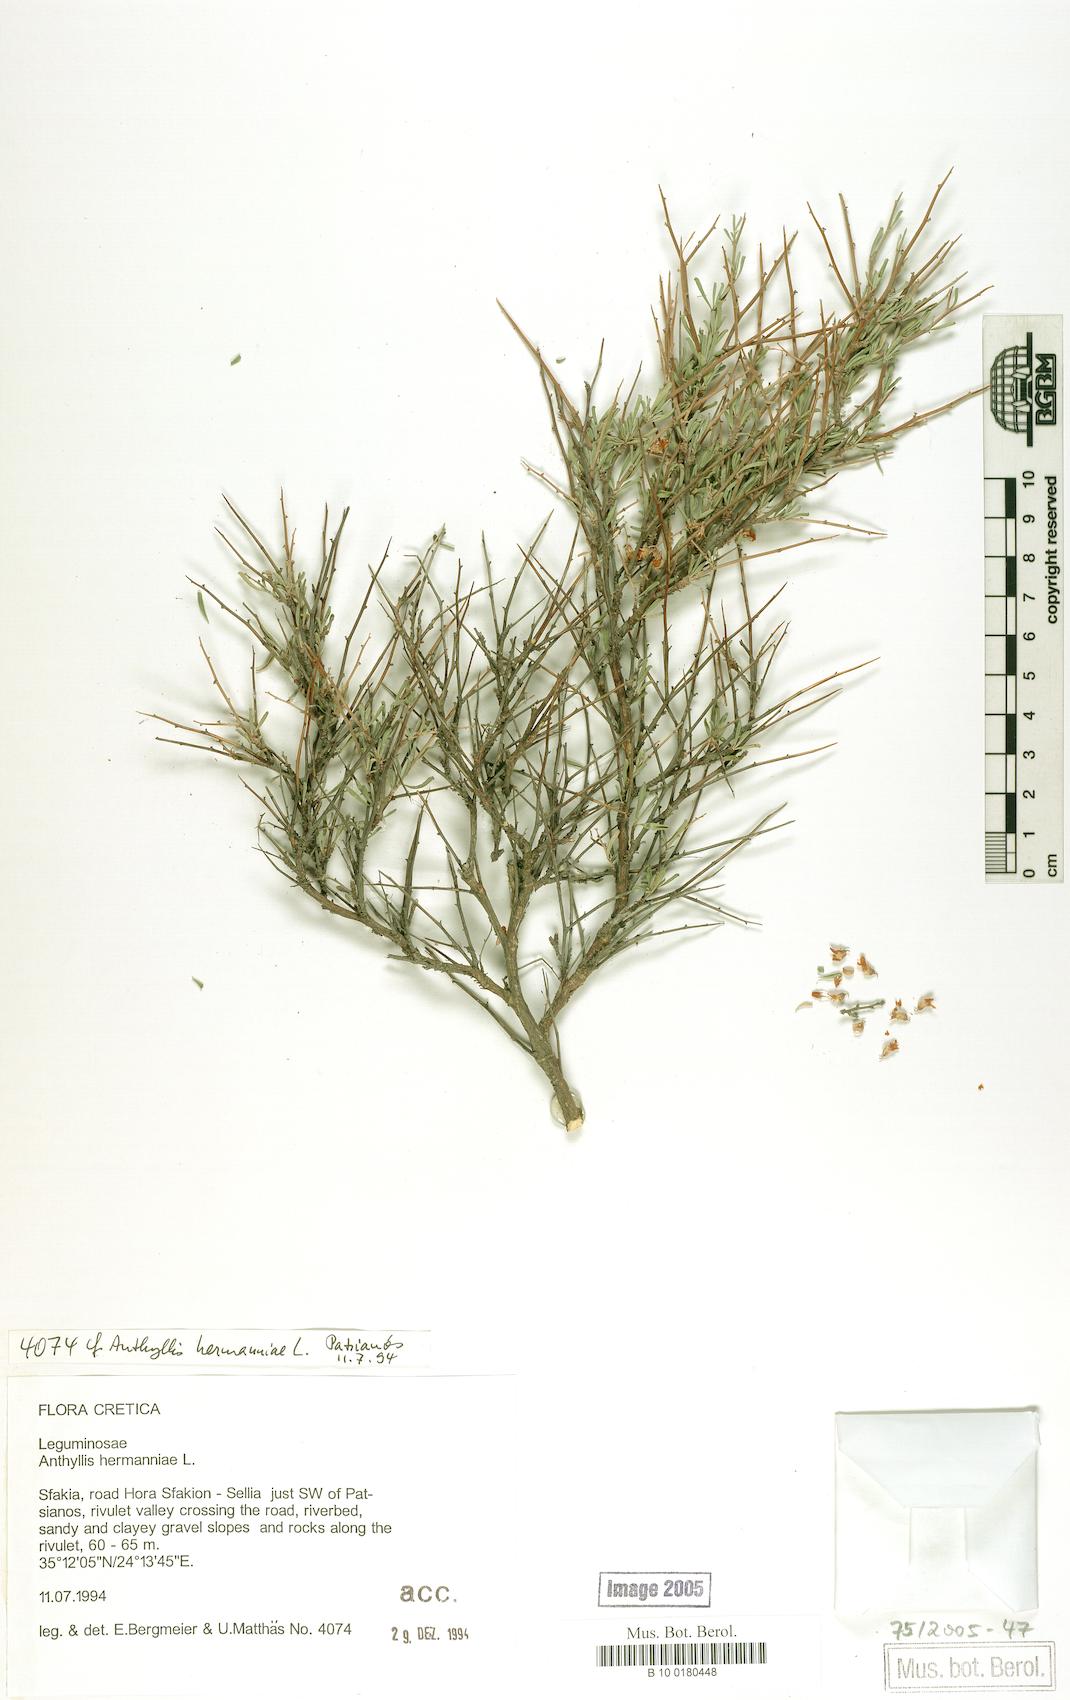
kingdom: Plantae
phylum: Tracheophyta
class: Magnoliopsida
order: Fabales
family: Fabaceae
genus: Anthyllis
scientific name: Anthyllis hermanniae
